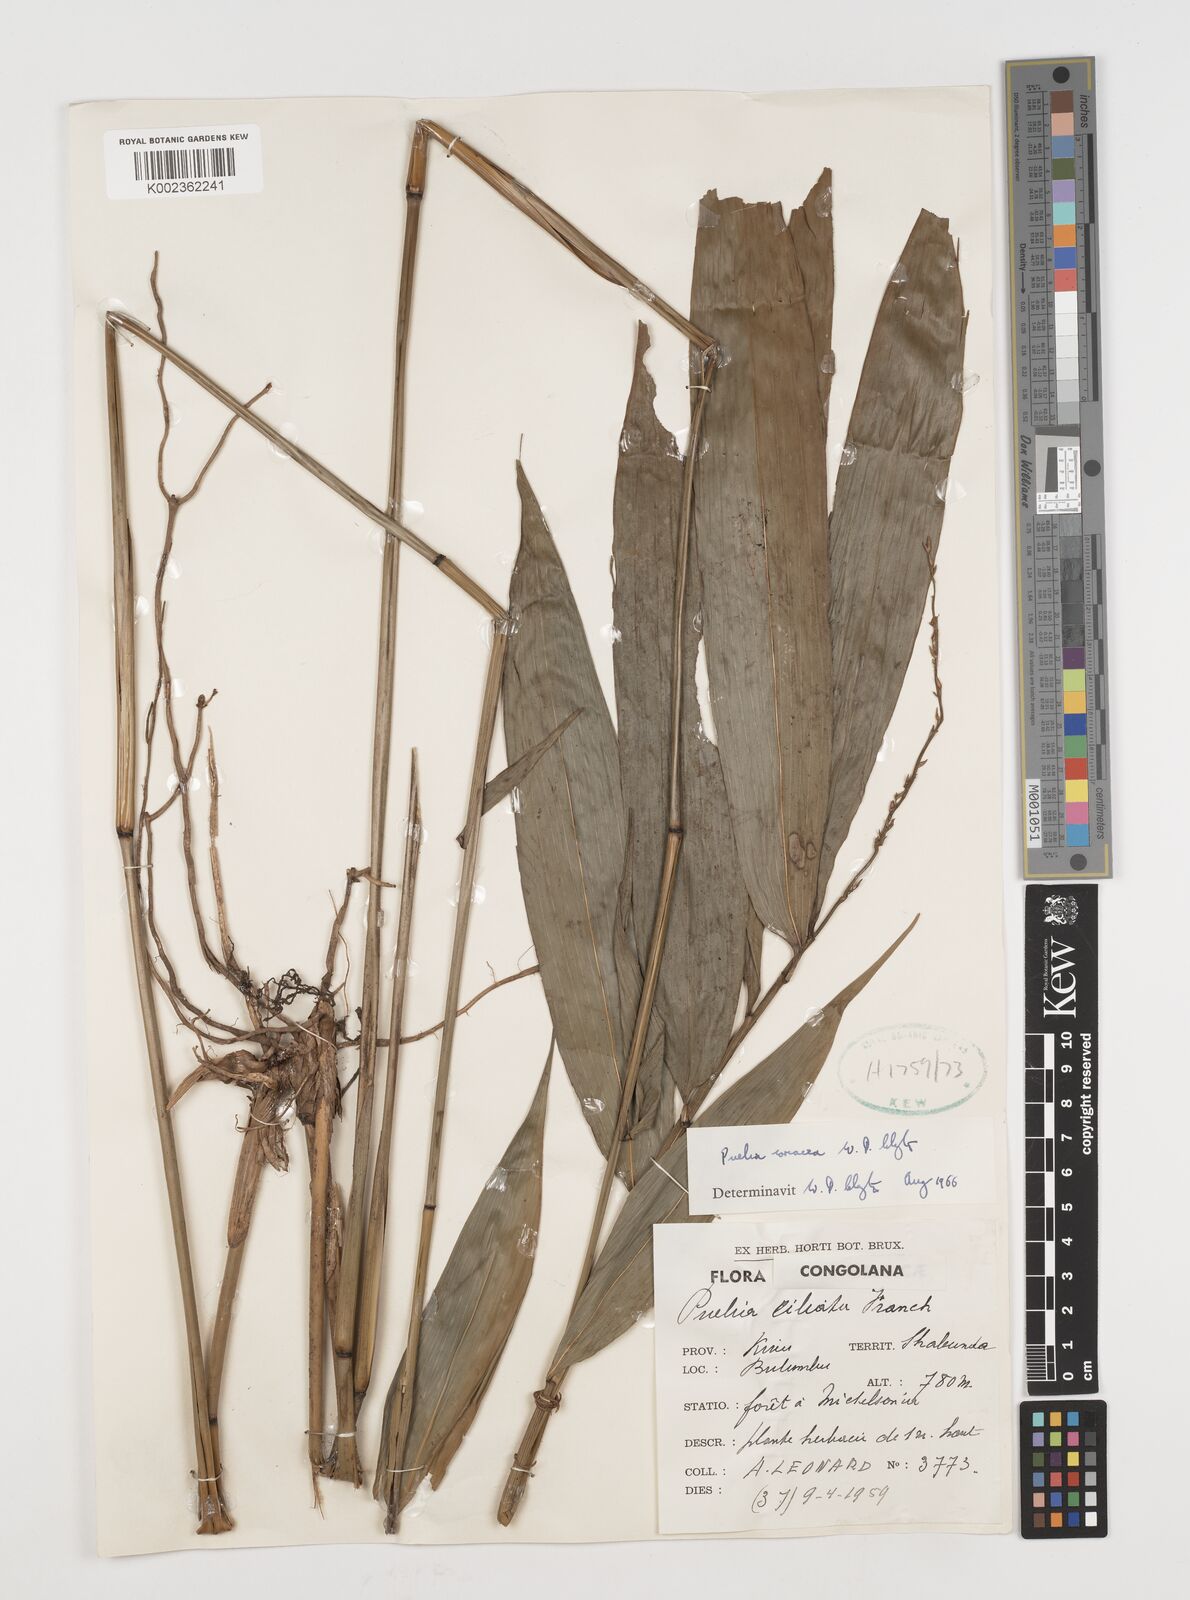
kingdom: Plantae
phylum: Tracheophyta
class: Liliopsida
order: Poales
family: Poaceae
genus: Puelia
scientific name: Puelia coriacea
